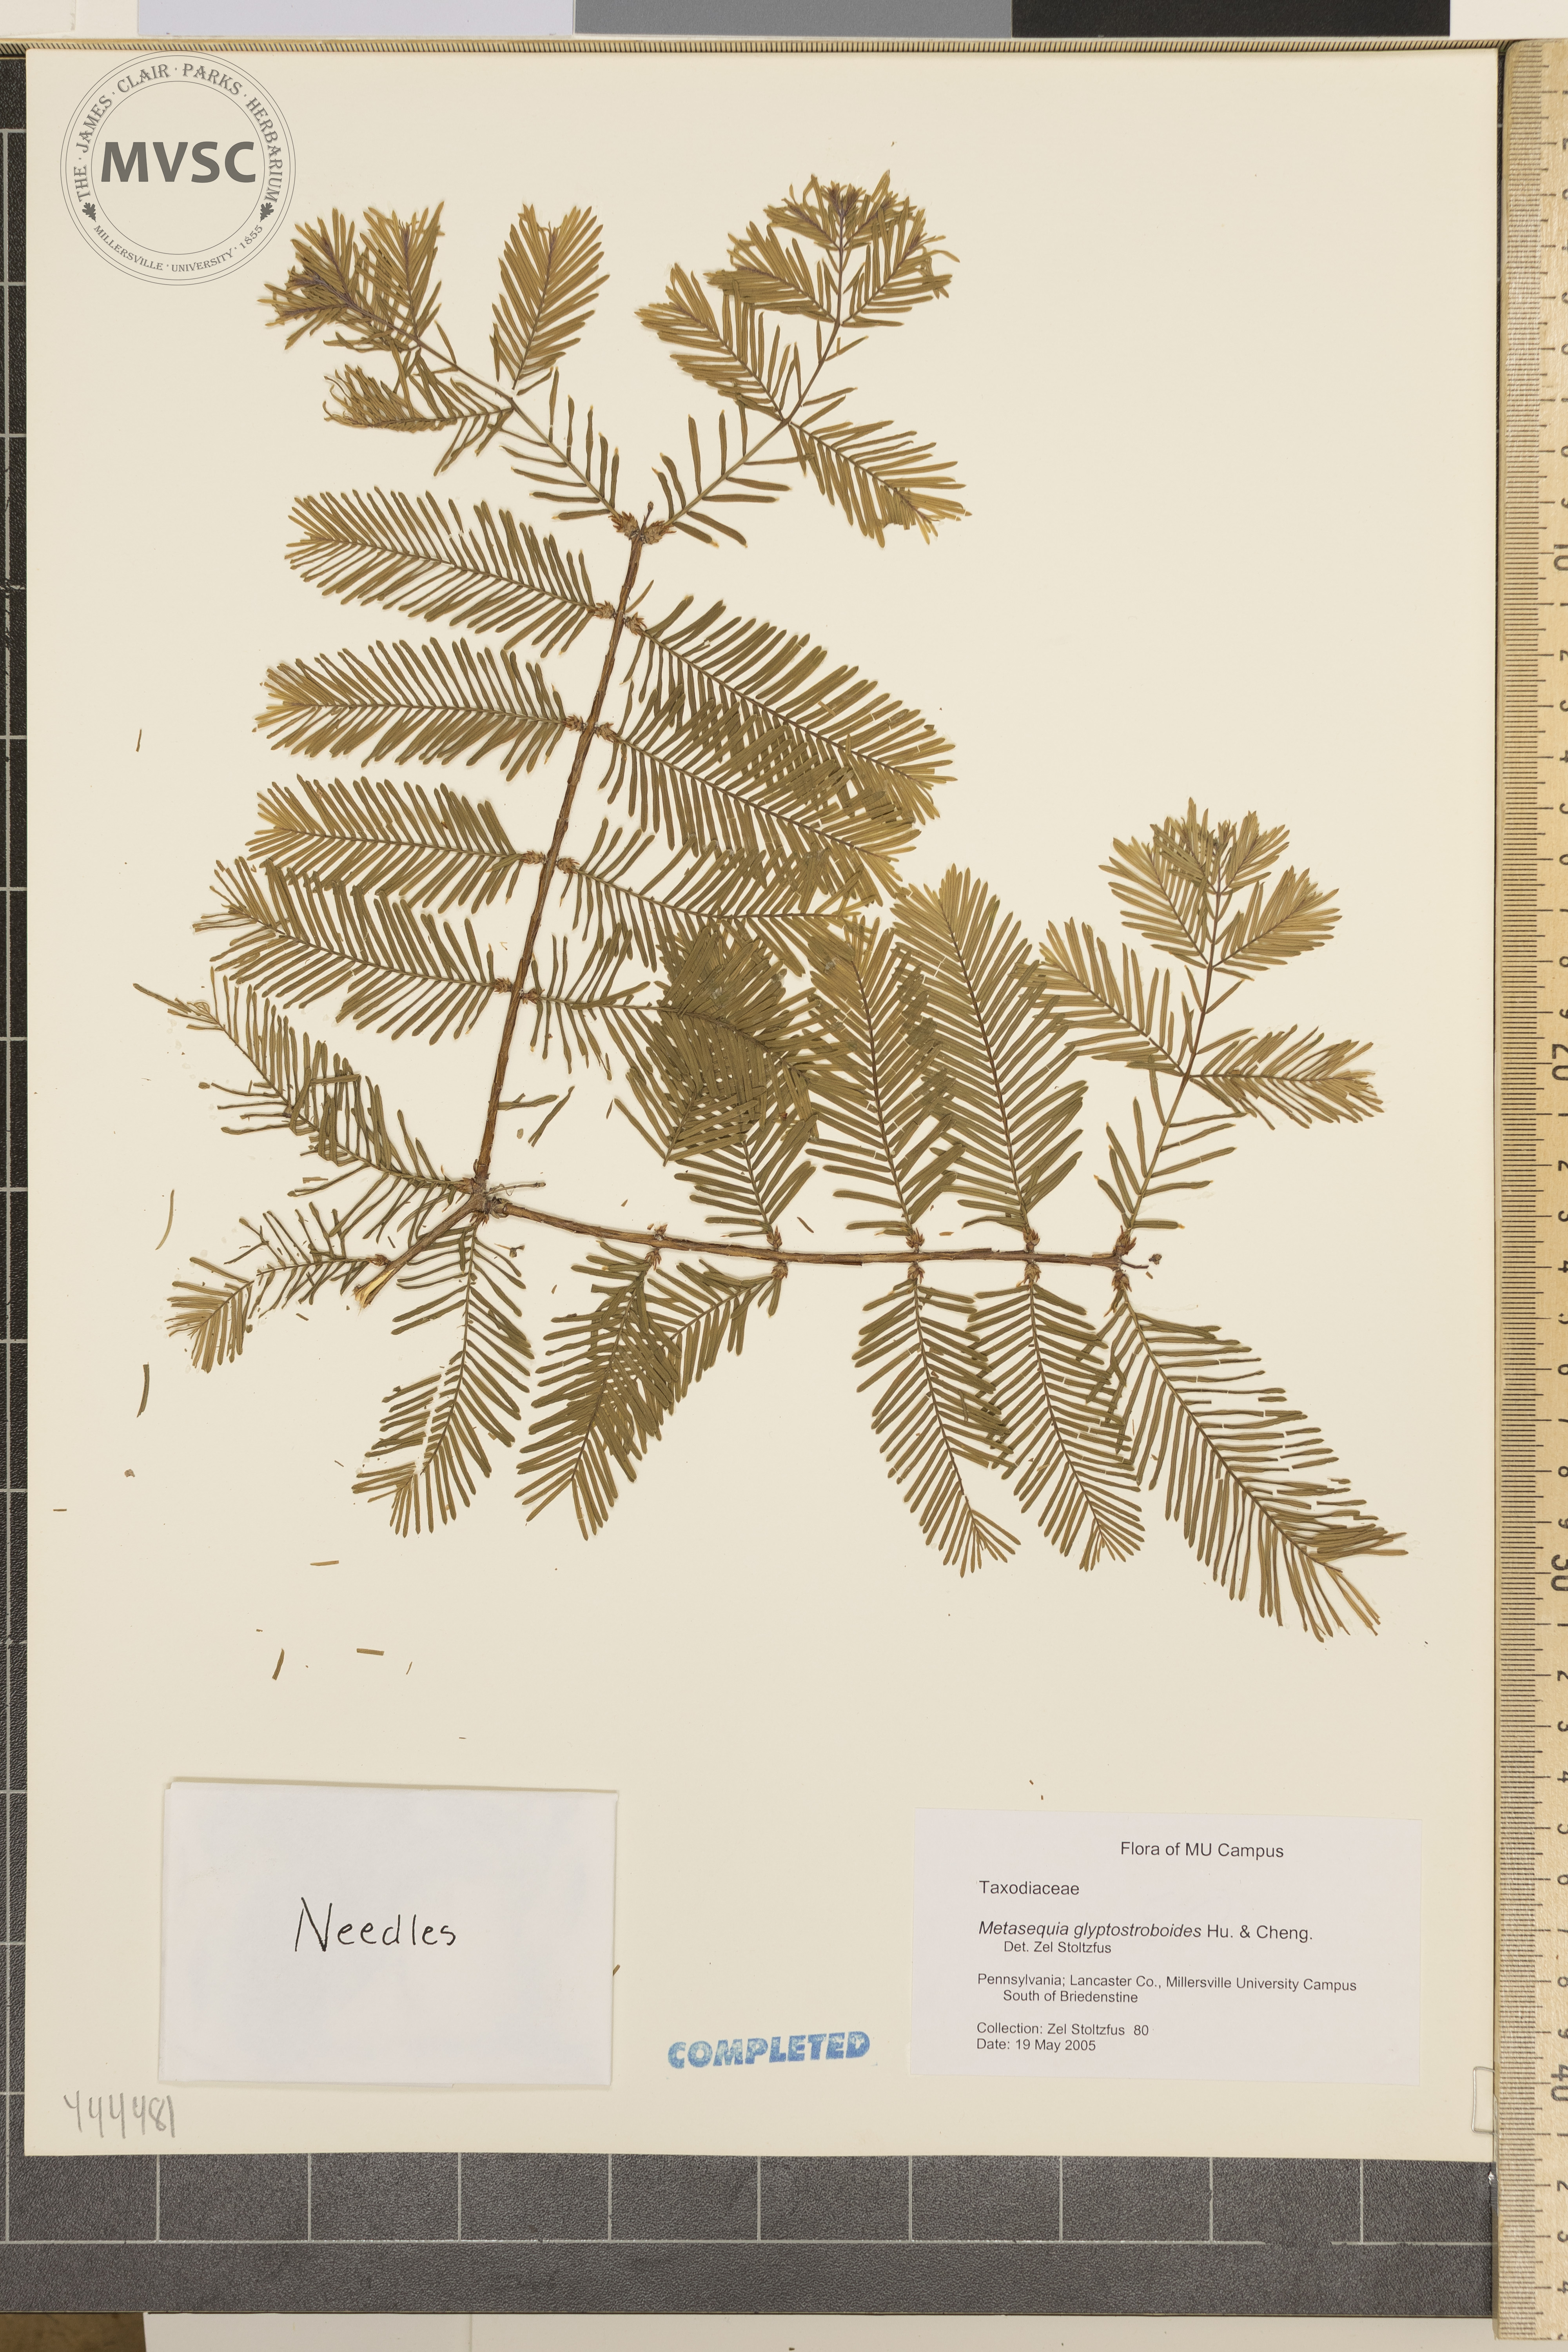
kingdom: Plantae
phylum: Tracheophyta
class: Pinopsida
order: Pinales
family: Cupressaceae
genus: Metasequioa
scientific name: Metasequioa glyptostroboides
